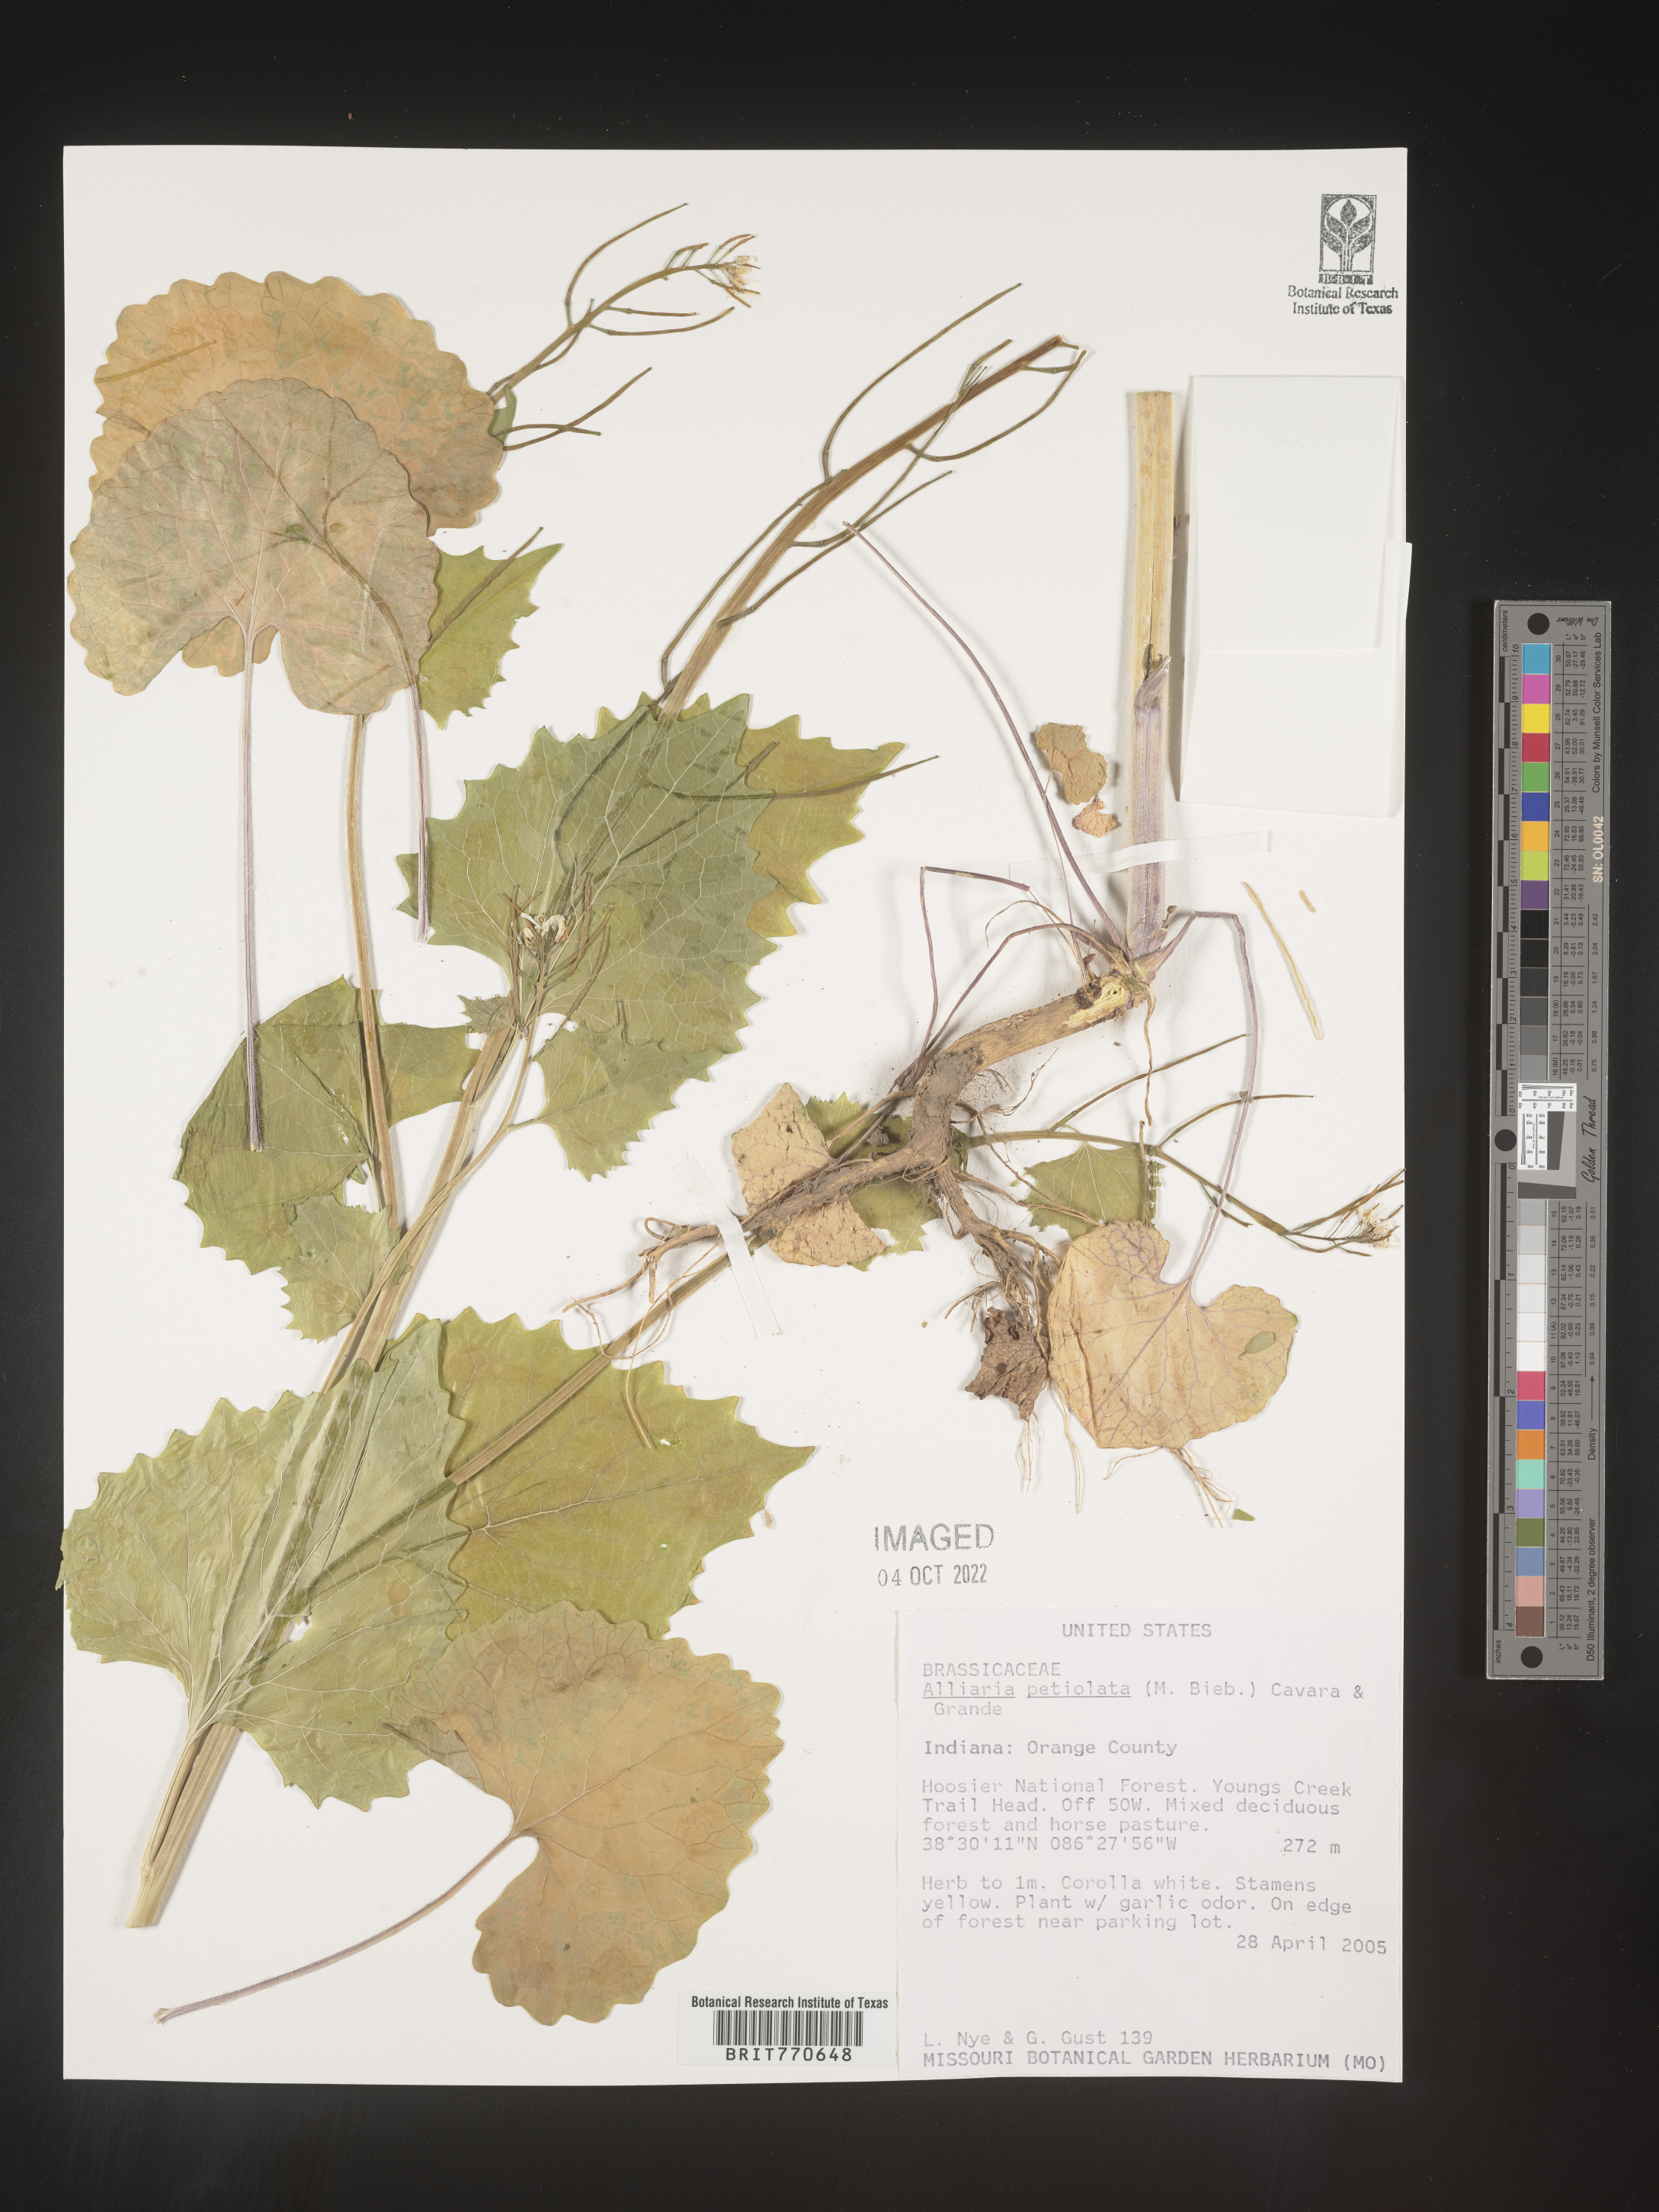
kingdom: Plantae
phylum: Tracheophyta
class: Magnoliopsida
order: Brassicales
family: Brassicaceae
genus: Alliaria
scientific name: Alliaria
